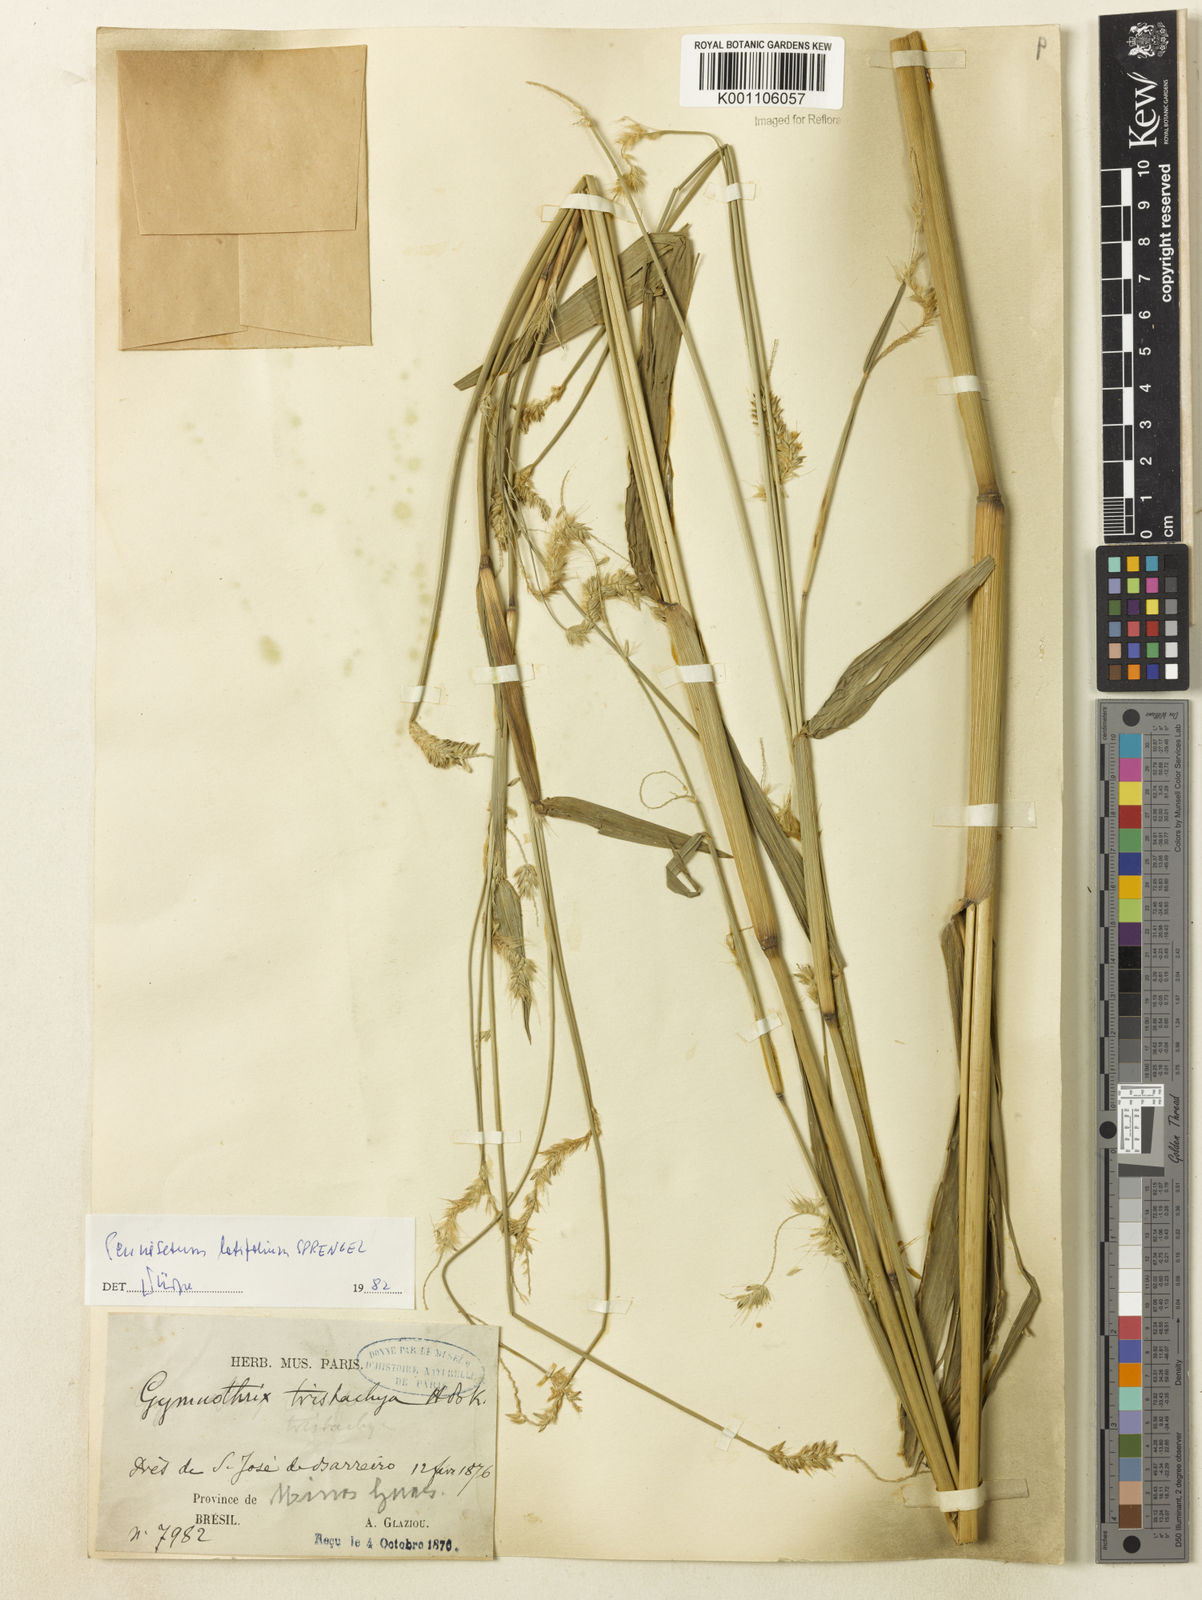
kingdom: Plantae
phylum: Tracheophyta
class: Liliopsida
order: Poales
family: Poaceae
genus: Cenchrus
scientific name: Cenchrus latifolius
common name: Sandbur
